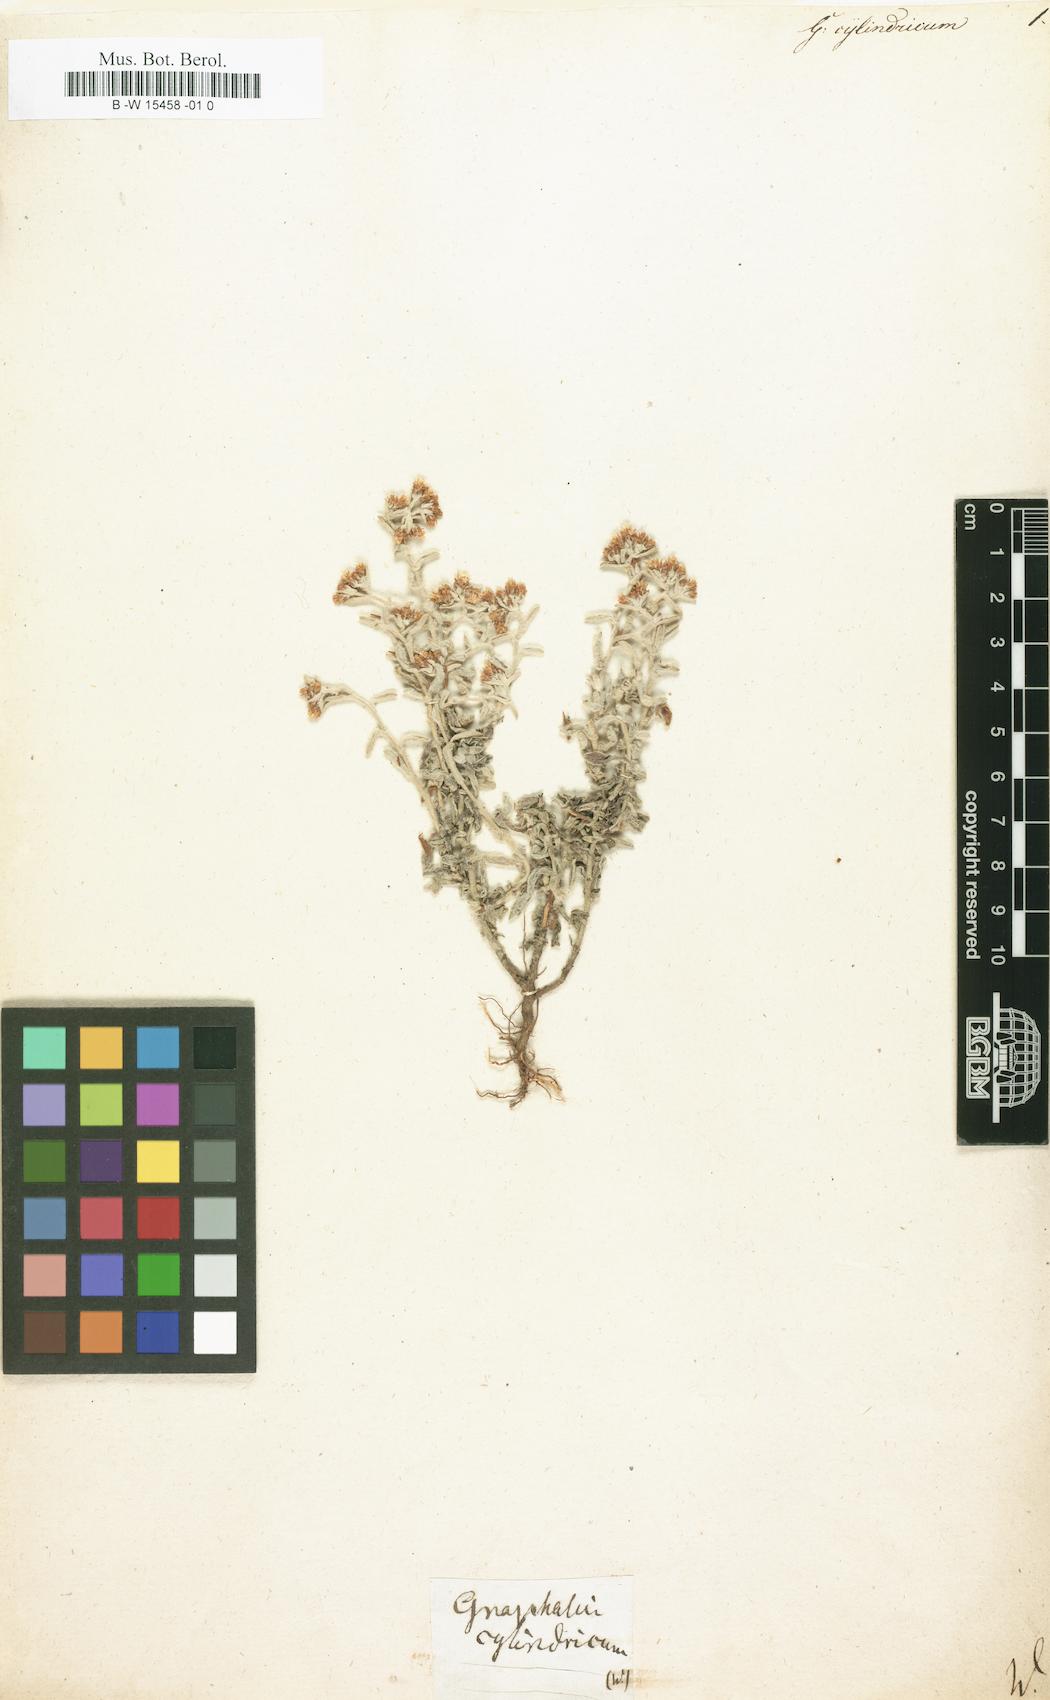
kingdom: Plantae
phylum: Tracheophyta
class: Magnoliopsida
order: Asterales
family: Asteraceae
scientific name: Asteraceae
